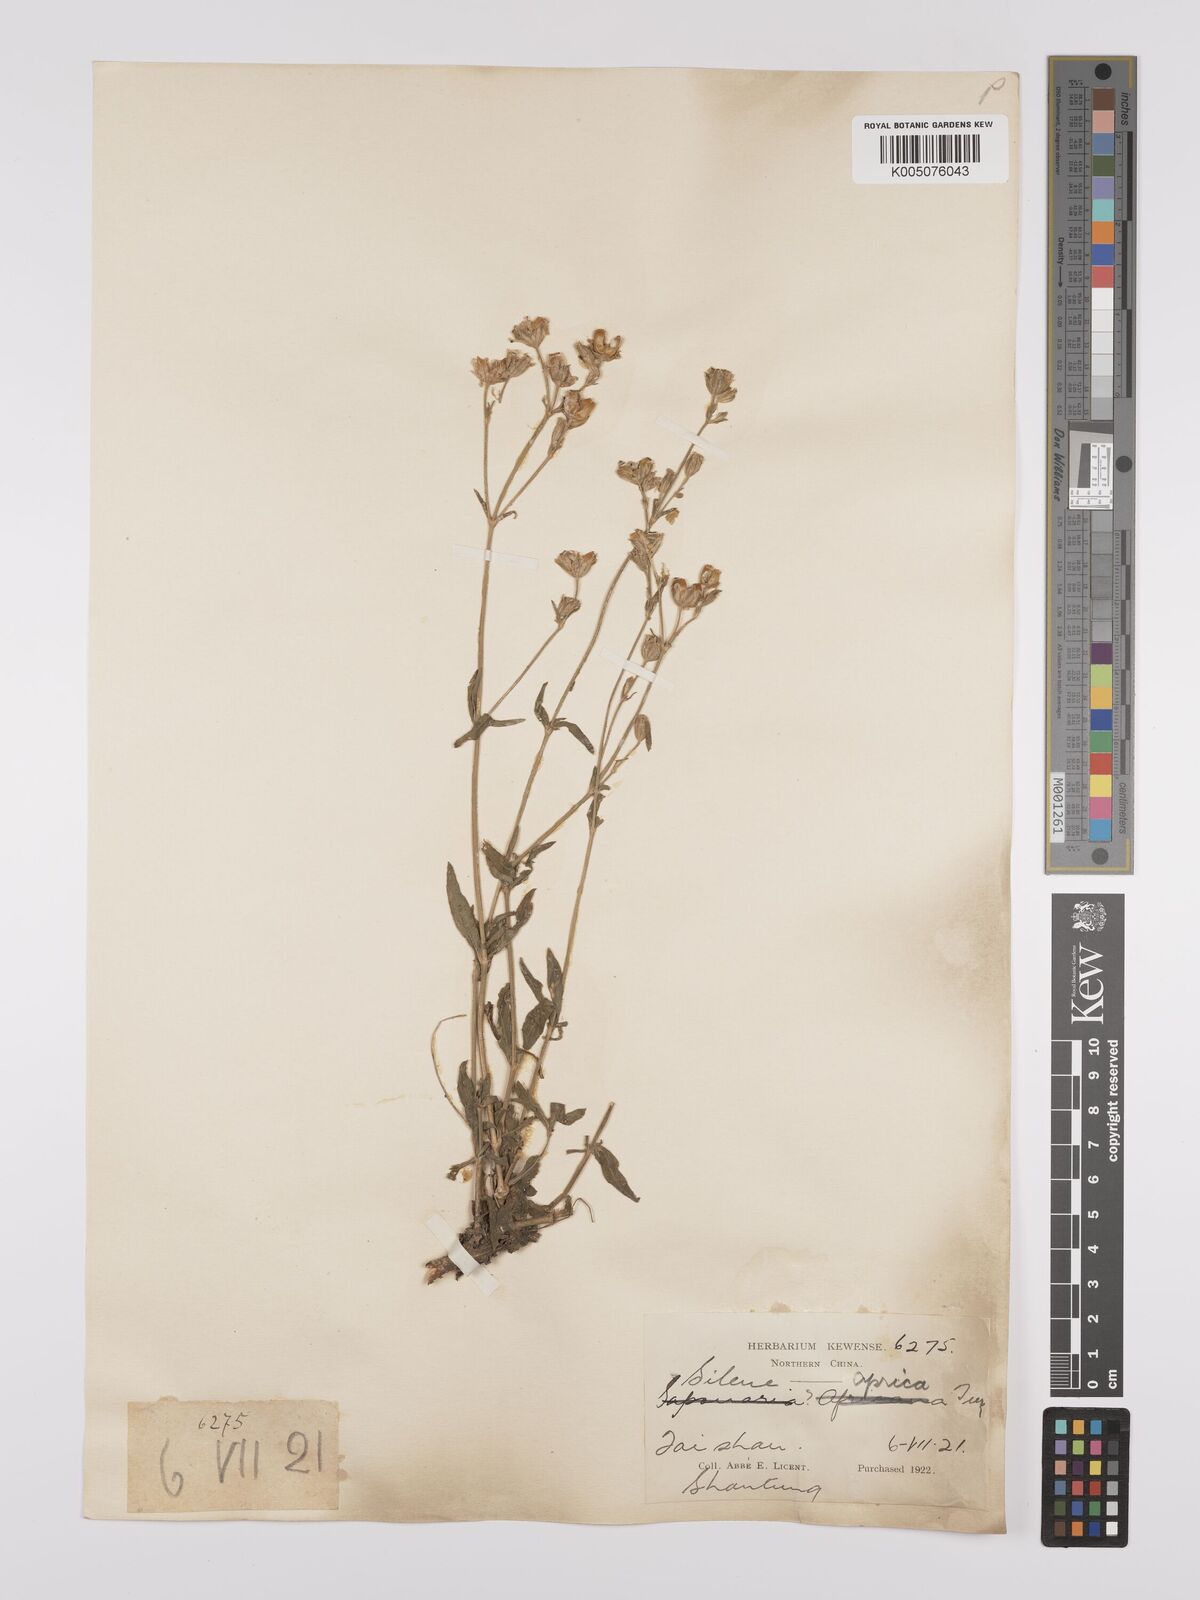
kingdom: Plantae
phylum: Tracheophyta
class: Magnoliopsida
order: Caryophyllales
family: Caryophyllaceae
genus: Silene
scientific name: Silene aprica
